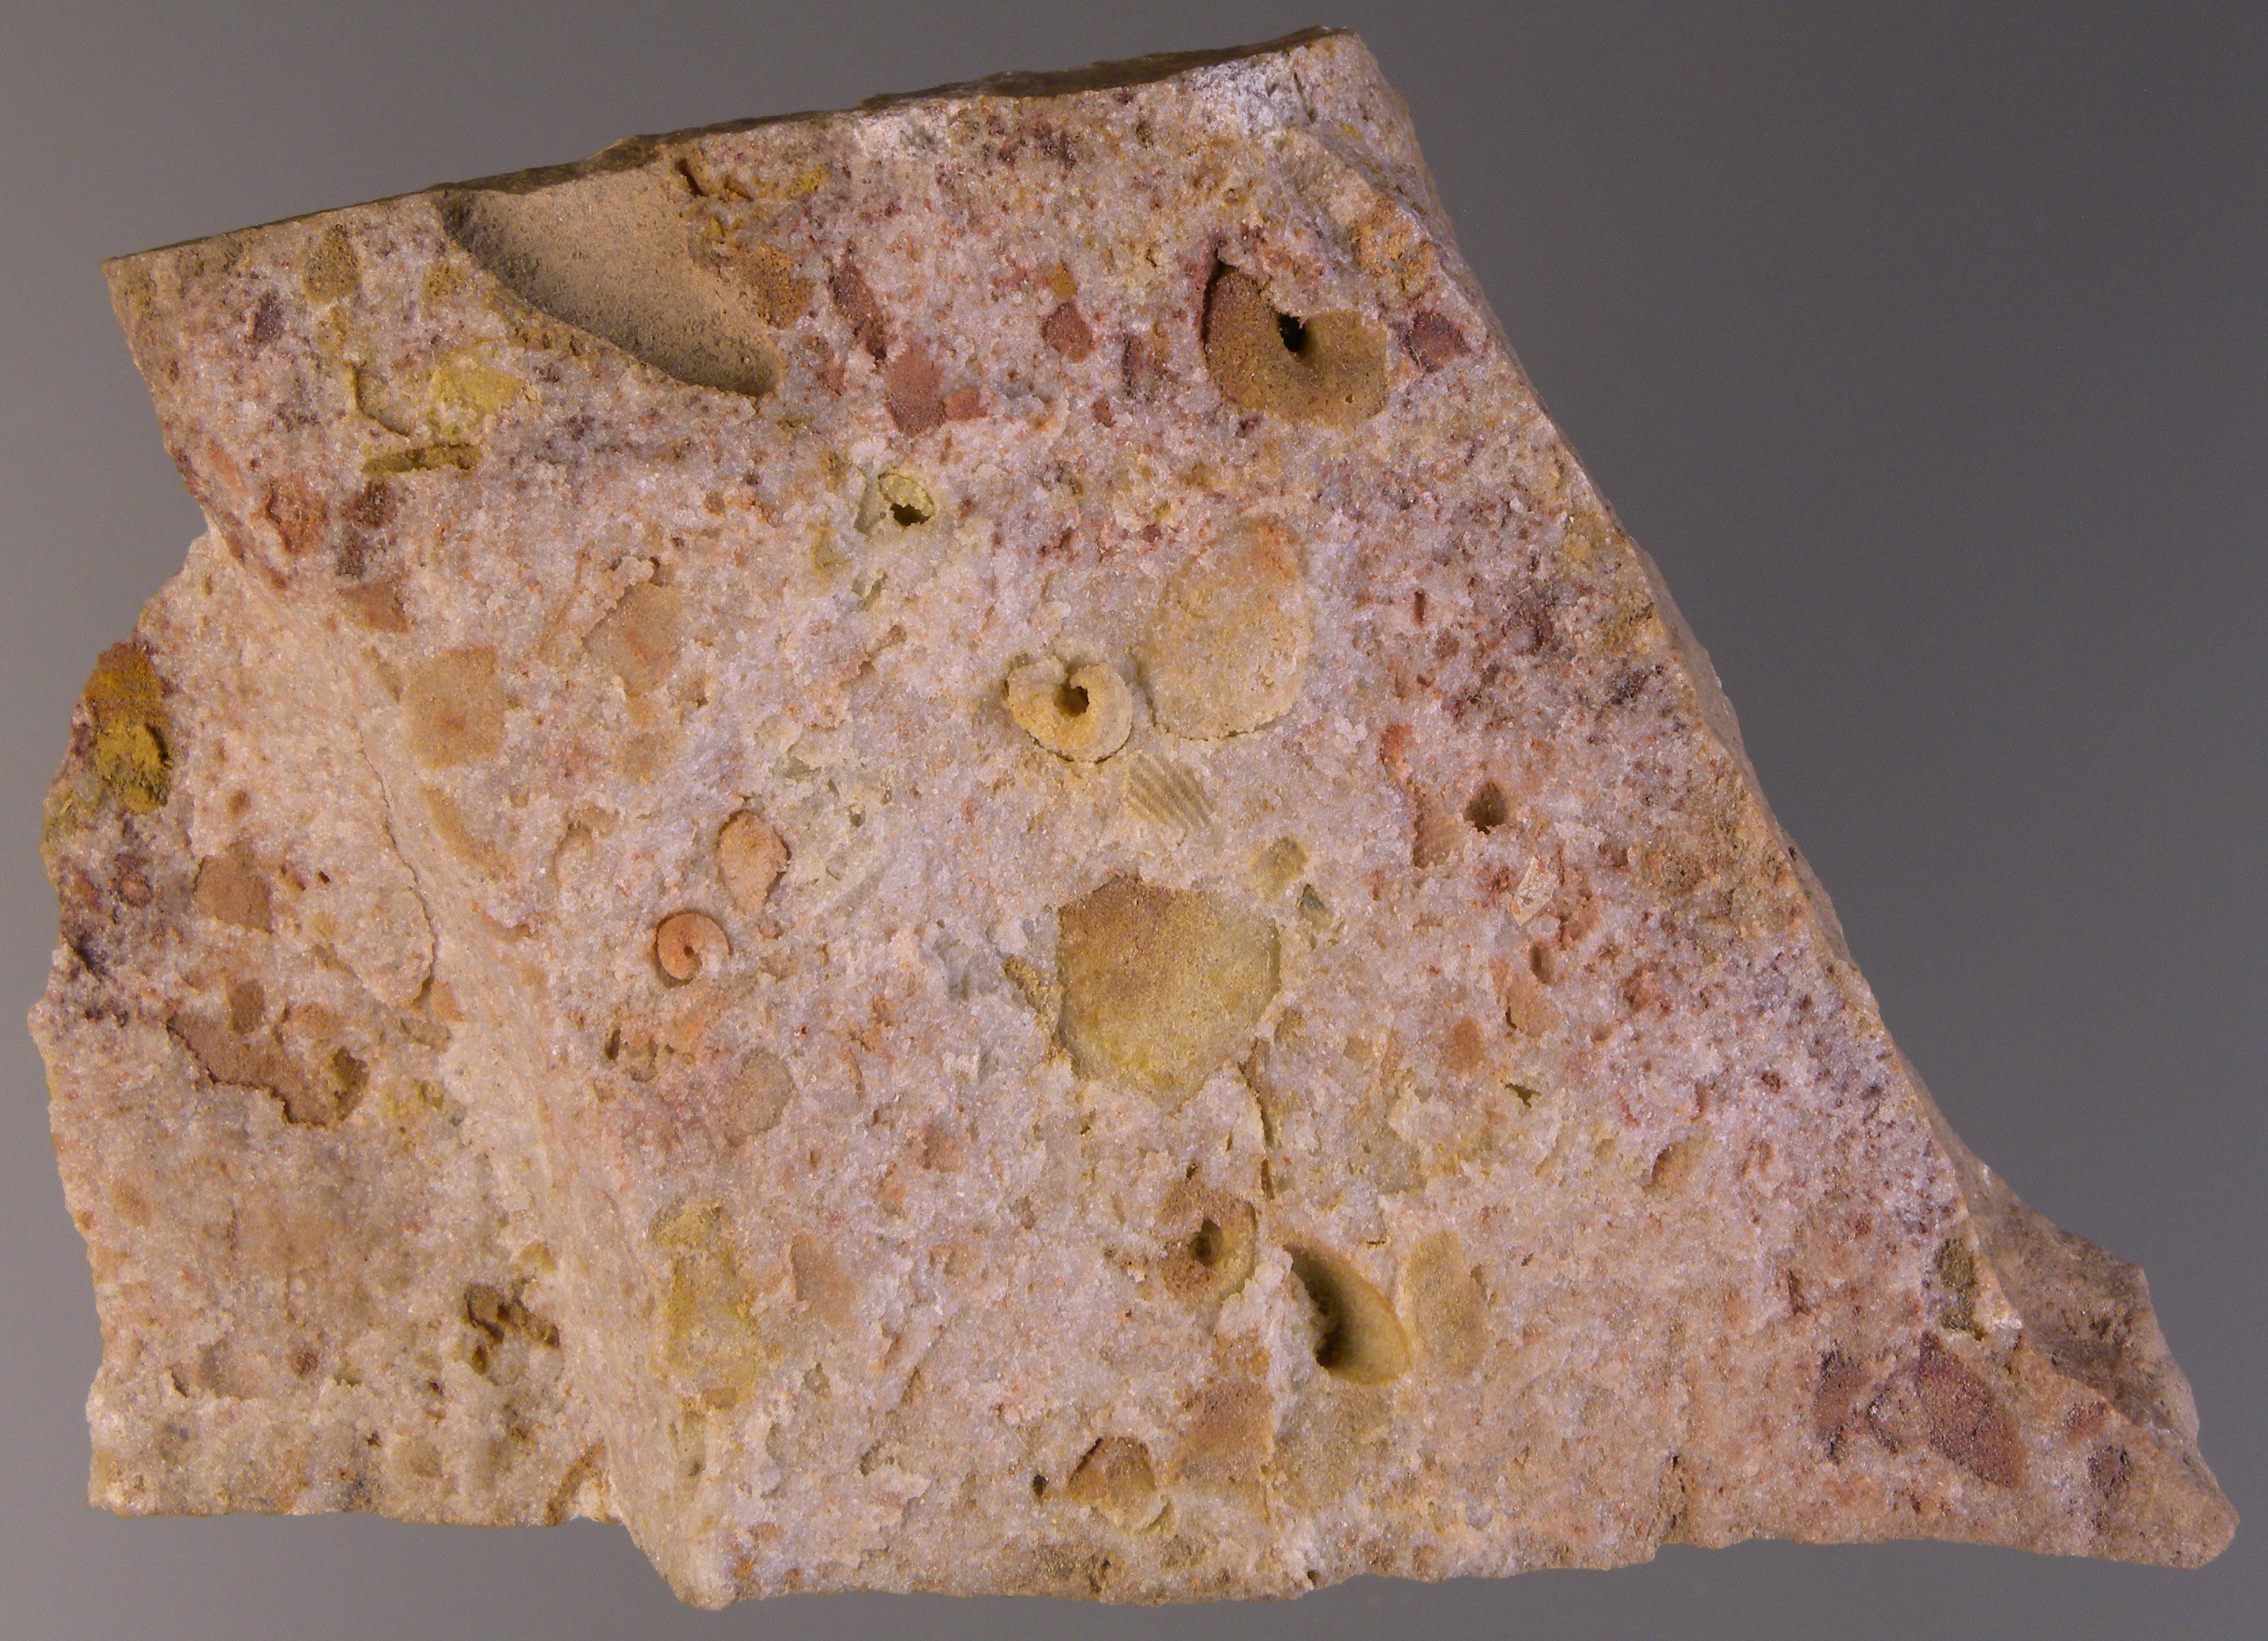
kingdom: Animalia
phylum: Mollusca
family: Bucanellidae
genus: Bucanella
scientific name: Bucanella
